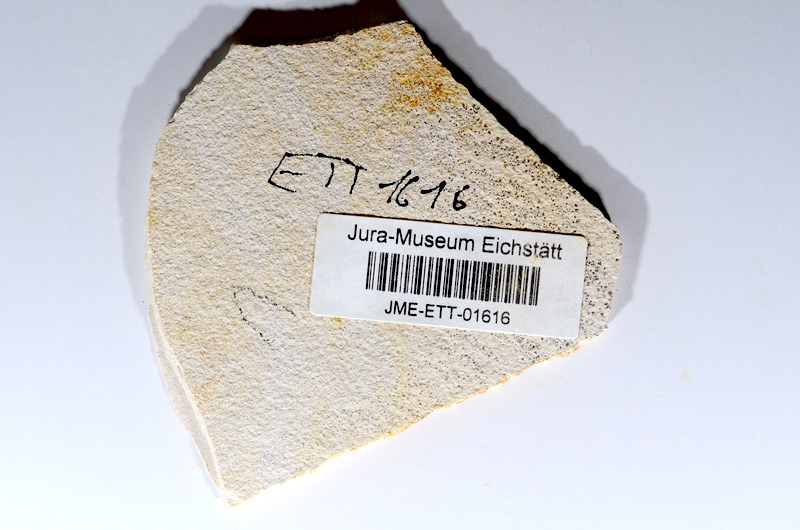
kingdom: Animalia
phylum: Chordata
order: Salmoniformes
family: Orthogonikleithridae
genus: Orthogonikleithrus
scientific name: Orthogonikleithrus hoelli
